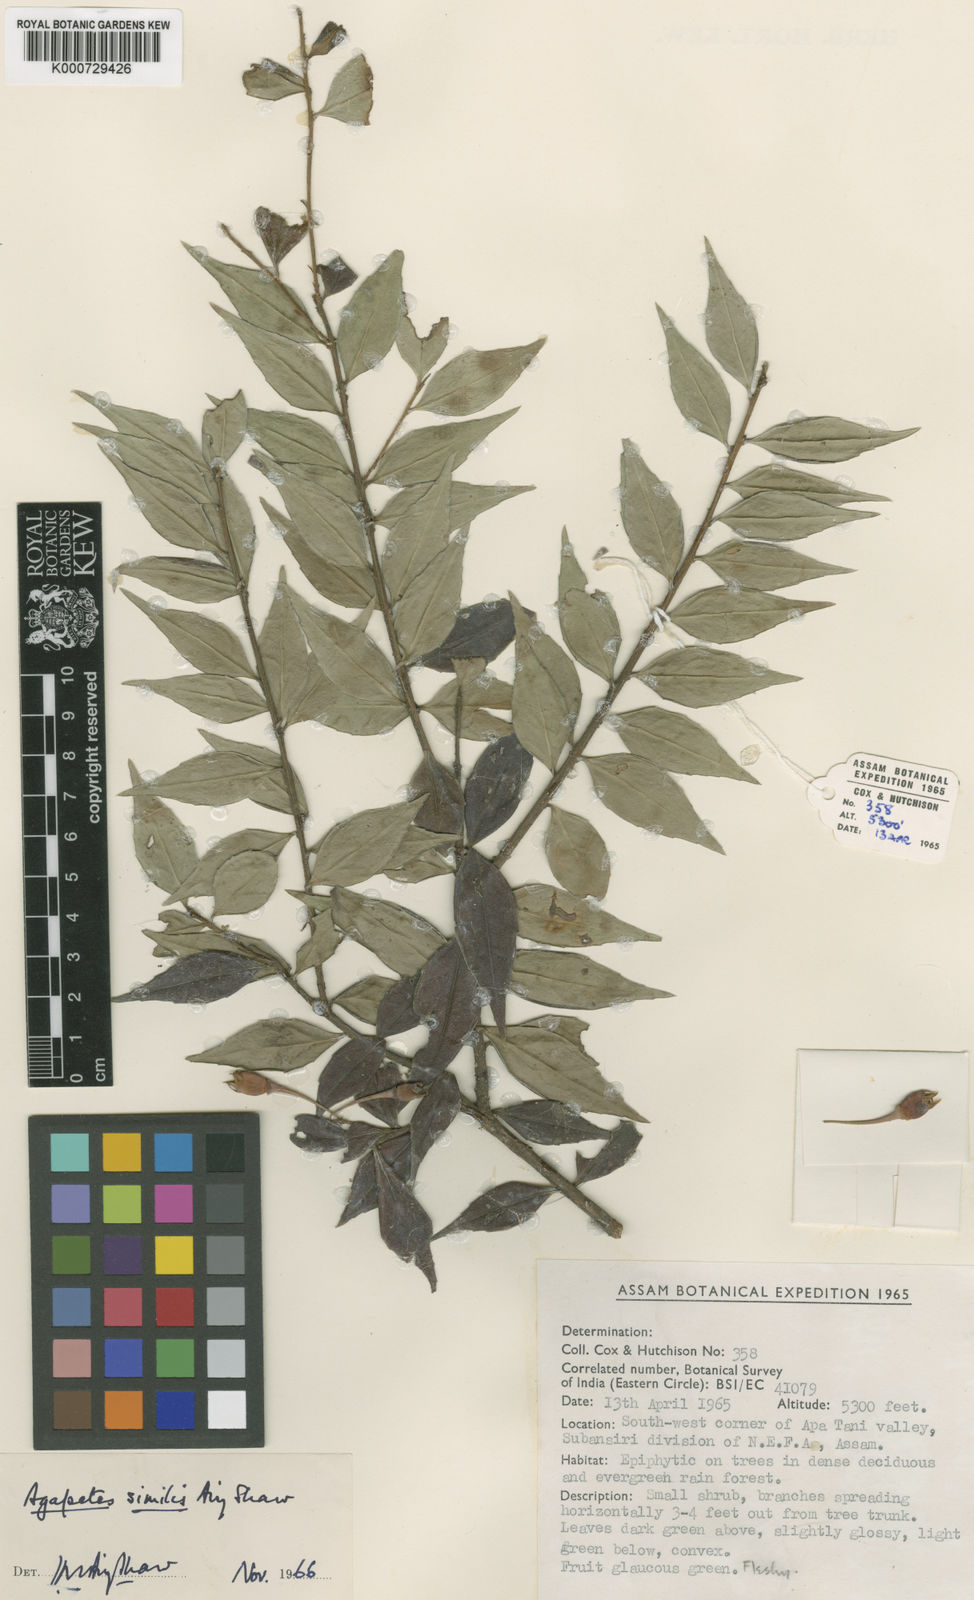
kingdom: Plantae
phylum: Tracheophyta
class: Magnoliopsida
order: Ericales
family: Ericaceae
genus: Agapetes
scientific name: Agapetes atrosanguinea
